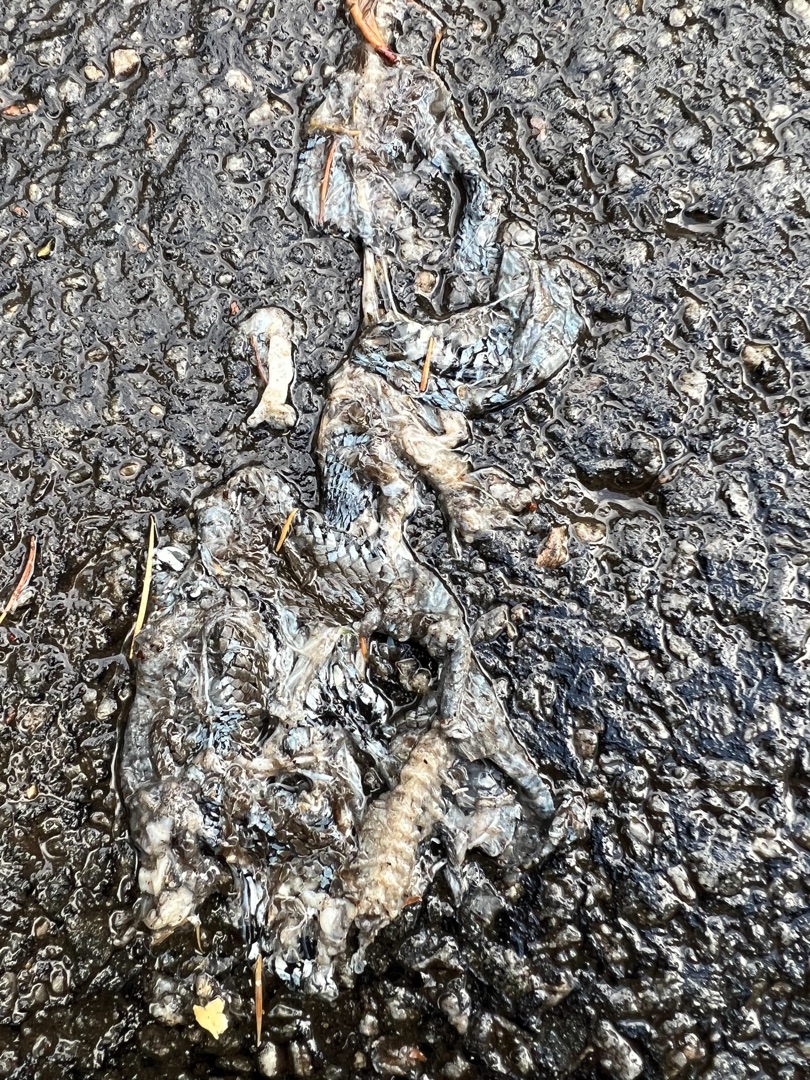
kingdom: Animalia
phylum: Chordata
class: Squamata
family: Colubridae
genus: Natrix
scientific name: Natrix natrix
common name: Snog
